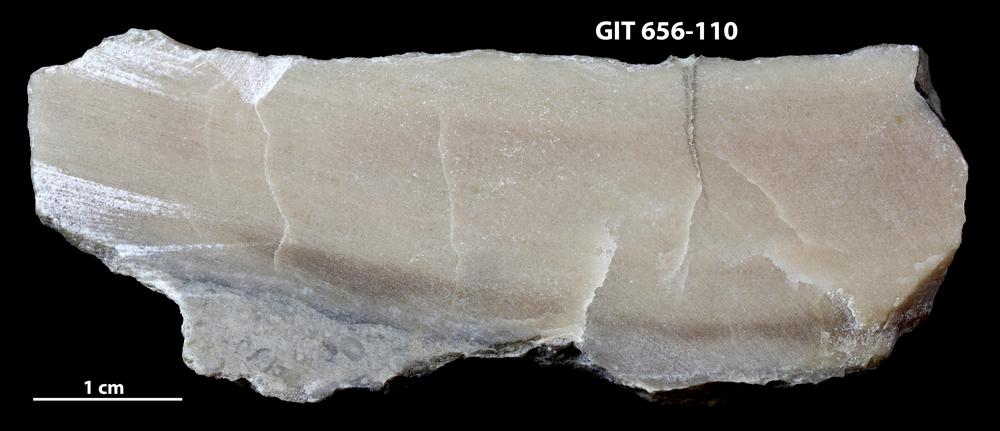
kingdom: Animalia
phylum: Porifera
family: Syringostromellidae
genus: Syringostromella
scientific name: Syringostromella
